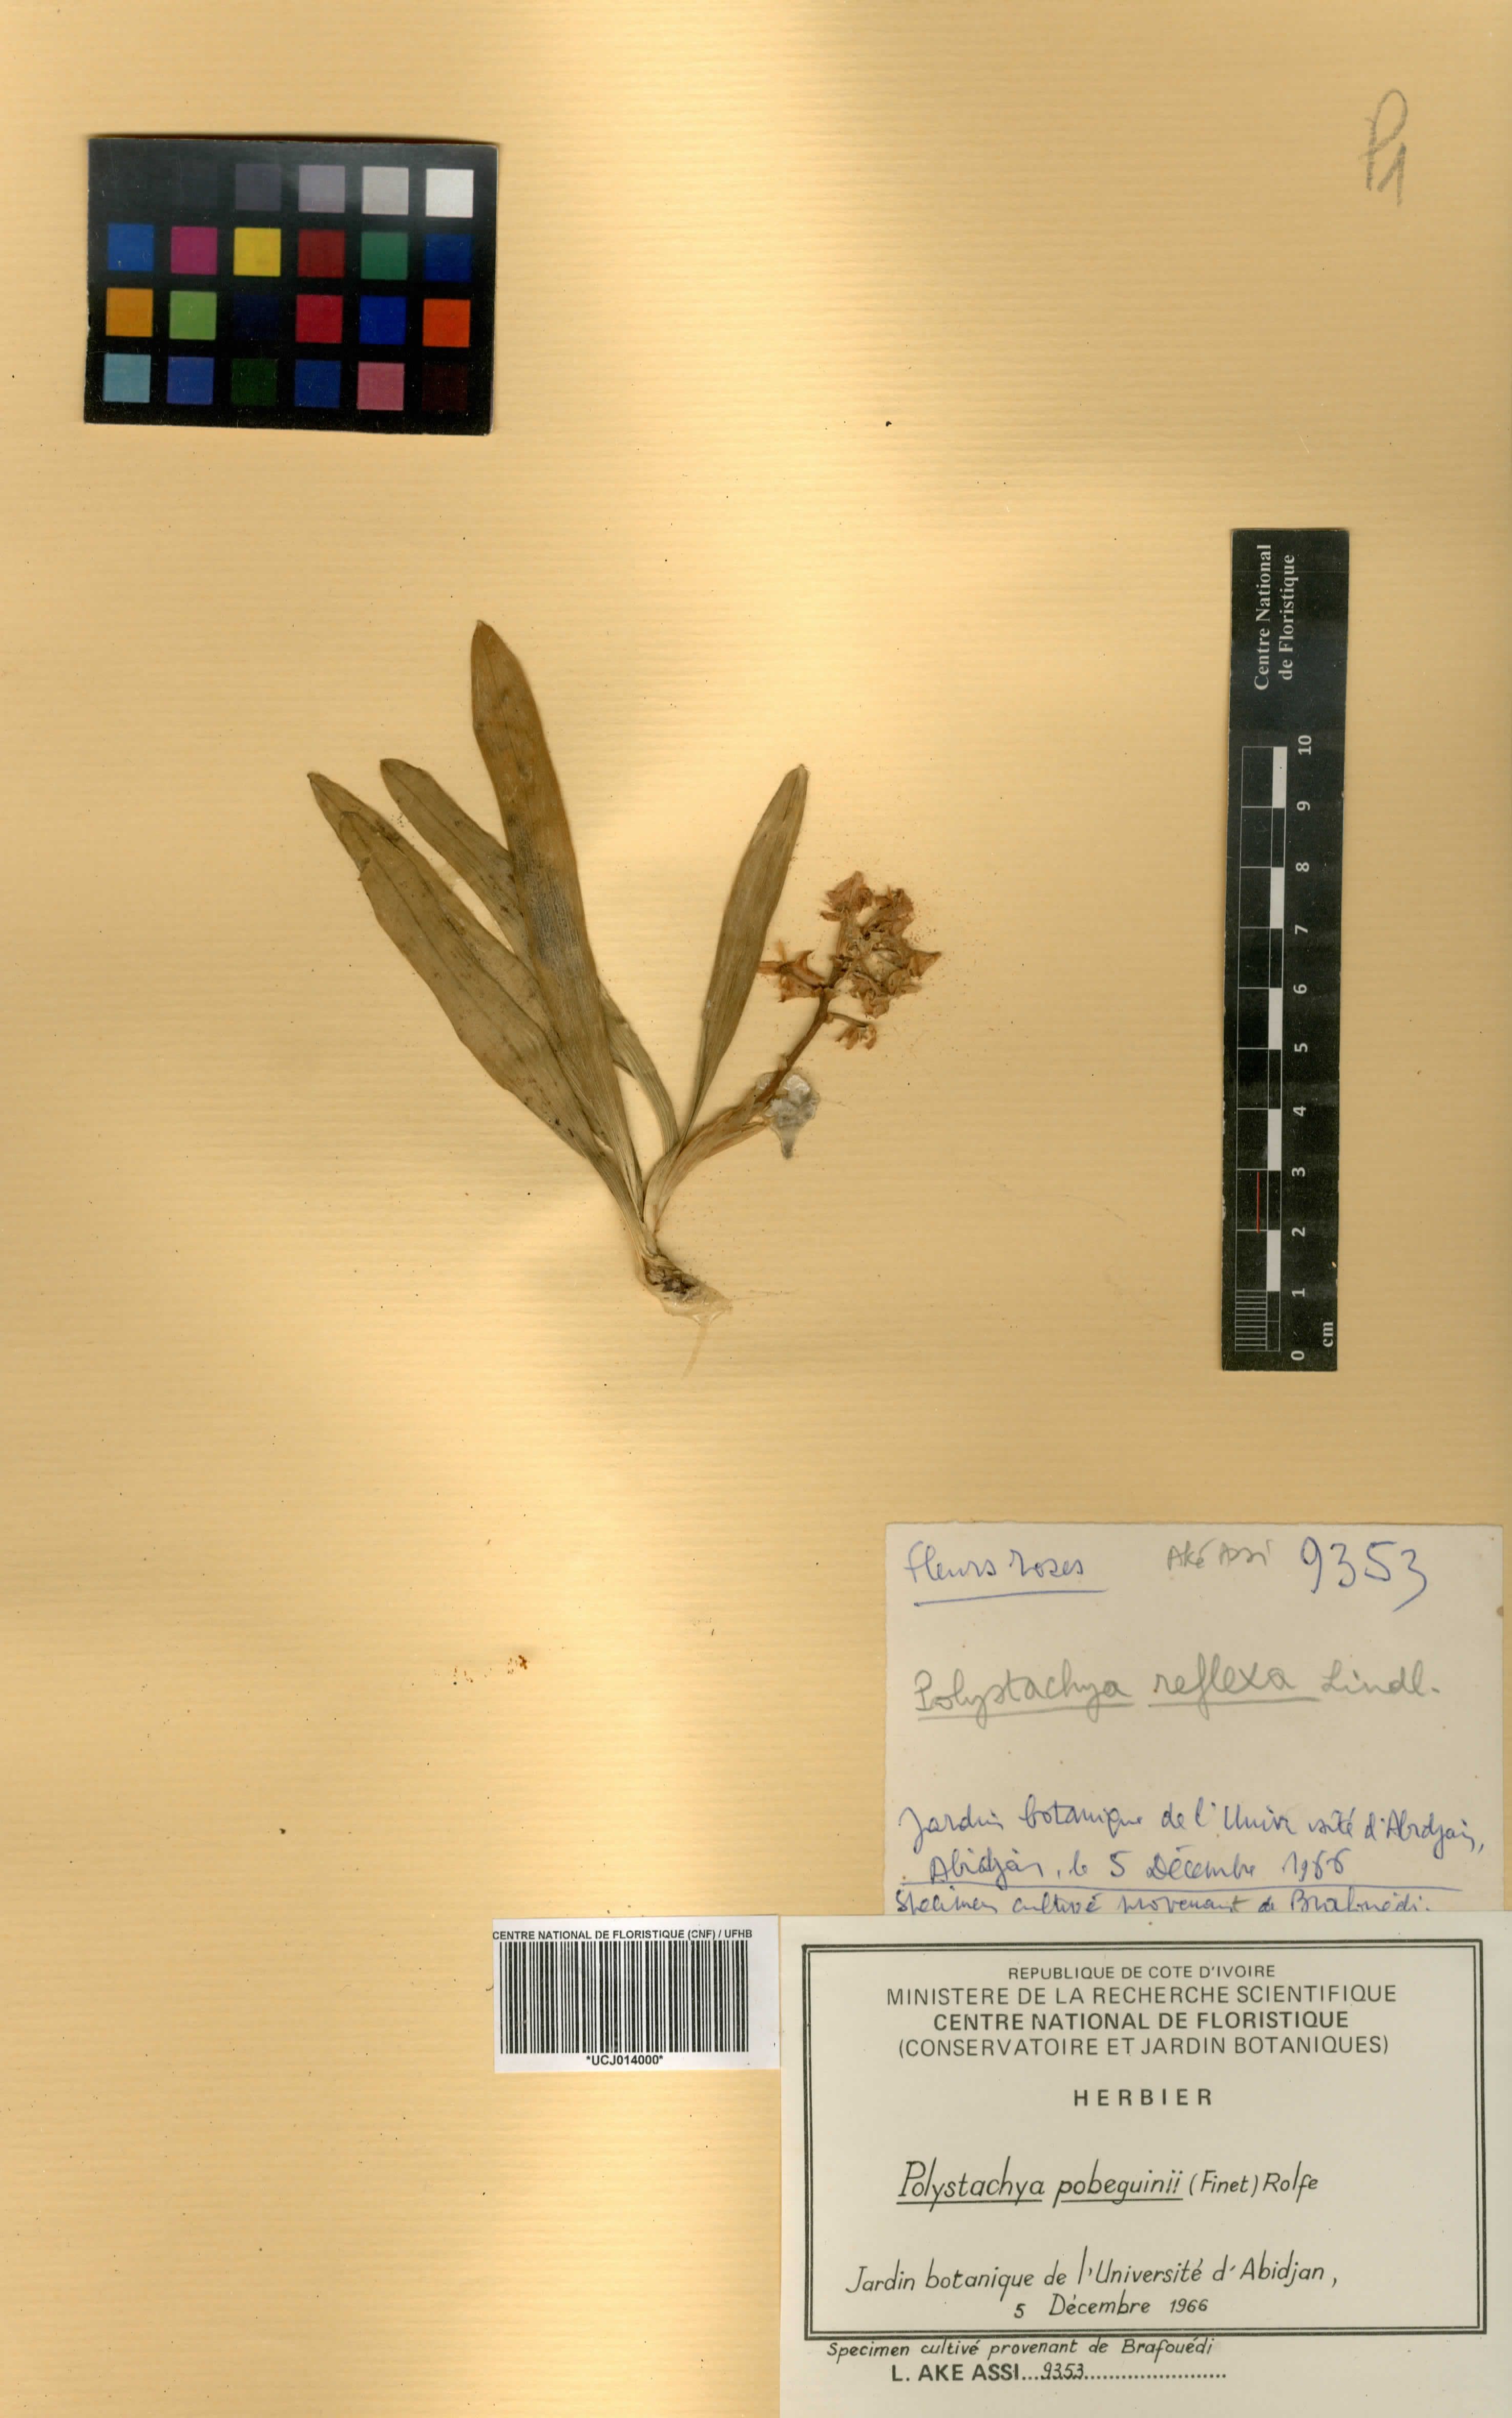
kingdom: Plantae
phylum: Tracheophyta
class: Liliopsida
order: Asparagales
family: Orchidaceae
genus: Polystachya
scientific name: Polystachya pobeguinii
